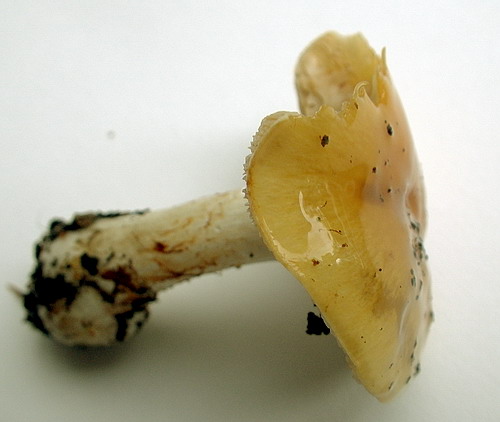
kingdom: Fungi
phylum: Basidiomycota
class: Agaricomycetes
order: Agaricales
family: Cortinariaceae
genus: Thaxterogaster
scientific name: Thaxterogaster talus
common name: knogle-slørhat
